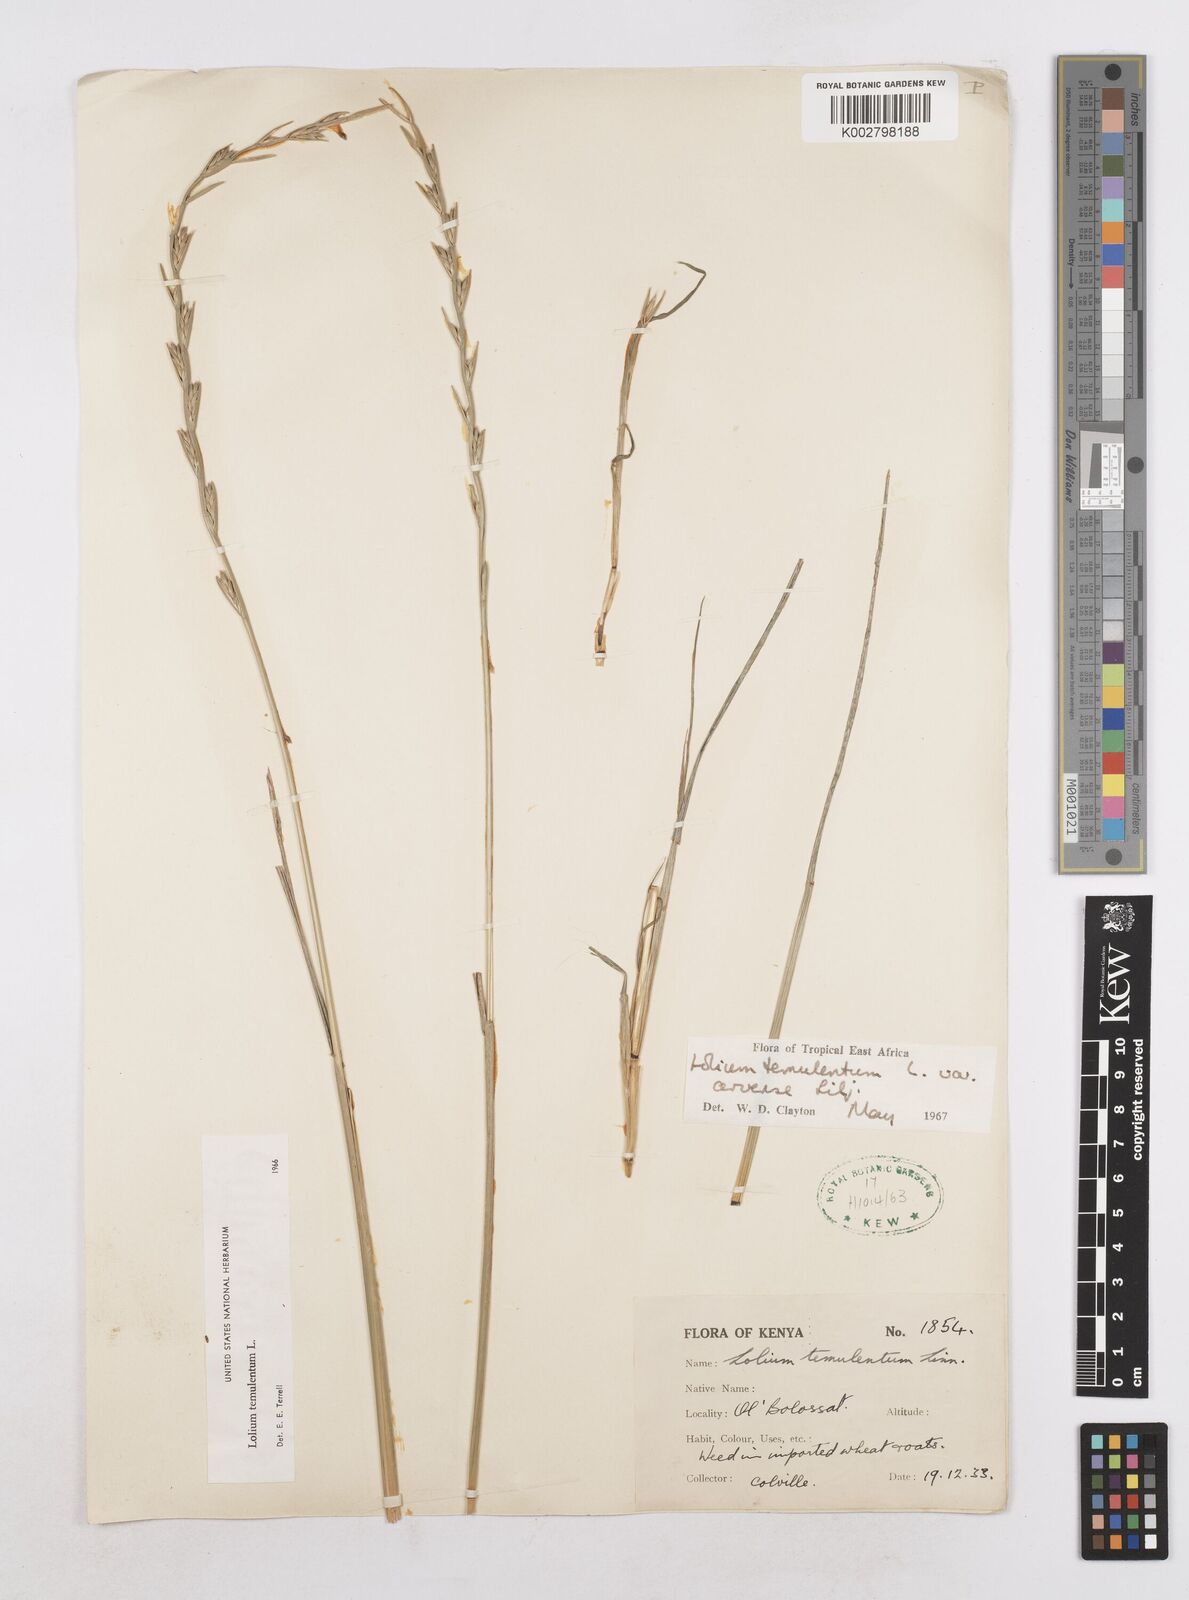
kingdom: Plantae
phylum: Tracheophyta
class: Liliopsida
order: Poales
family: Poaceae
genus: Lolium
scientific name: Lolium temulentum
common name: Darnel
